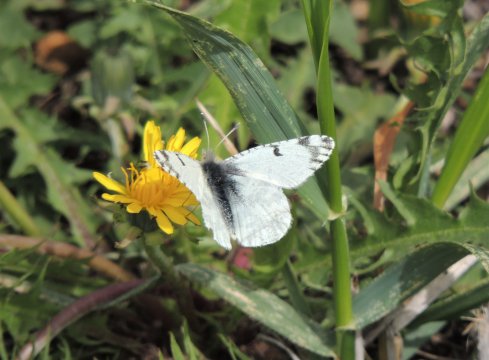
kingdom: Animalia
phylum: Arthropoda
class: Insecta
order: Lepidoptera
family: Pieridae
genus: Euchloe
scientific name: Euchloe lotta
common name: Desert Marble
